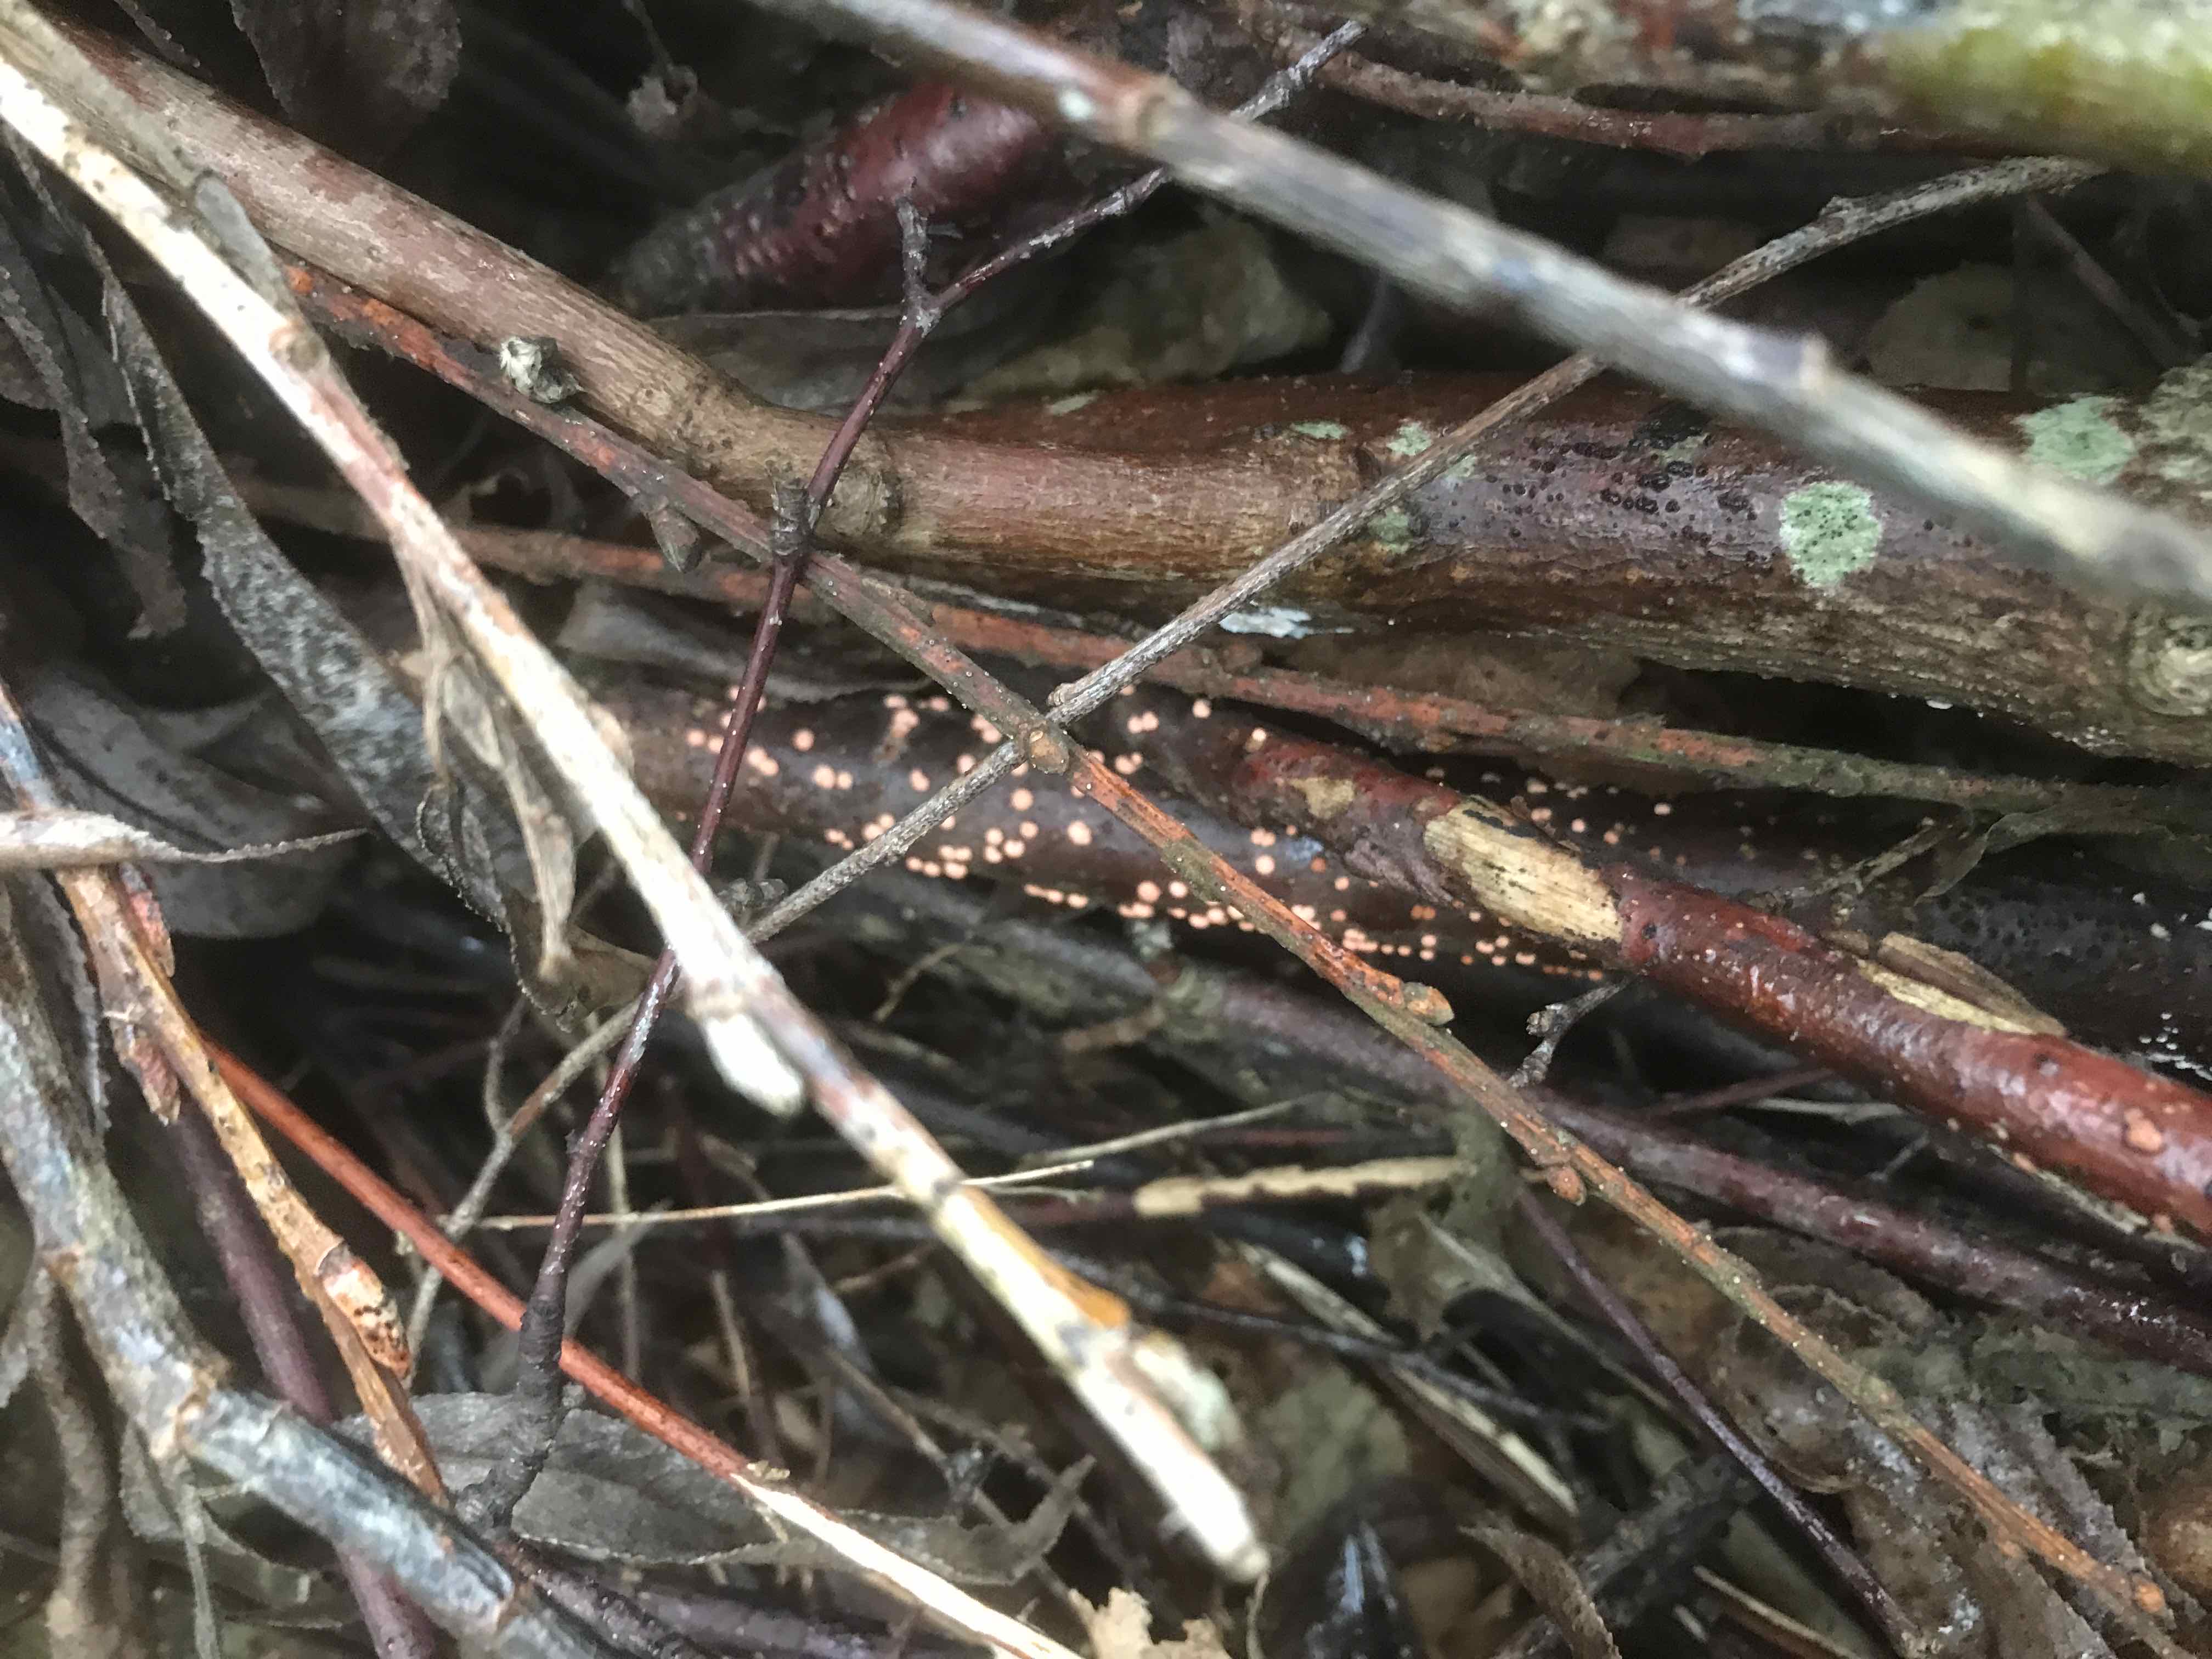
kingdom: Fungi
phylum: Ascomycota
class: Sordariomycetes
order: Hypocreales
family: Nectriaceae
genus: Nectria
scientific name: Nectria cinnabarina
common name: almindelig cinnobersvamp
